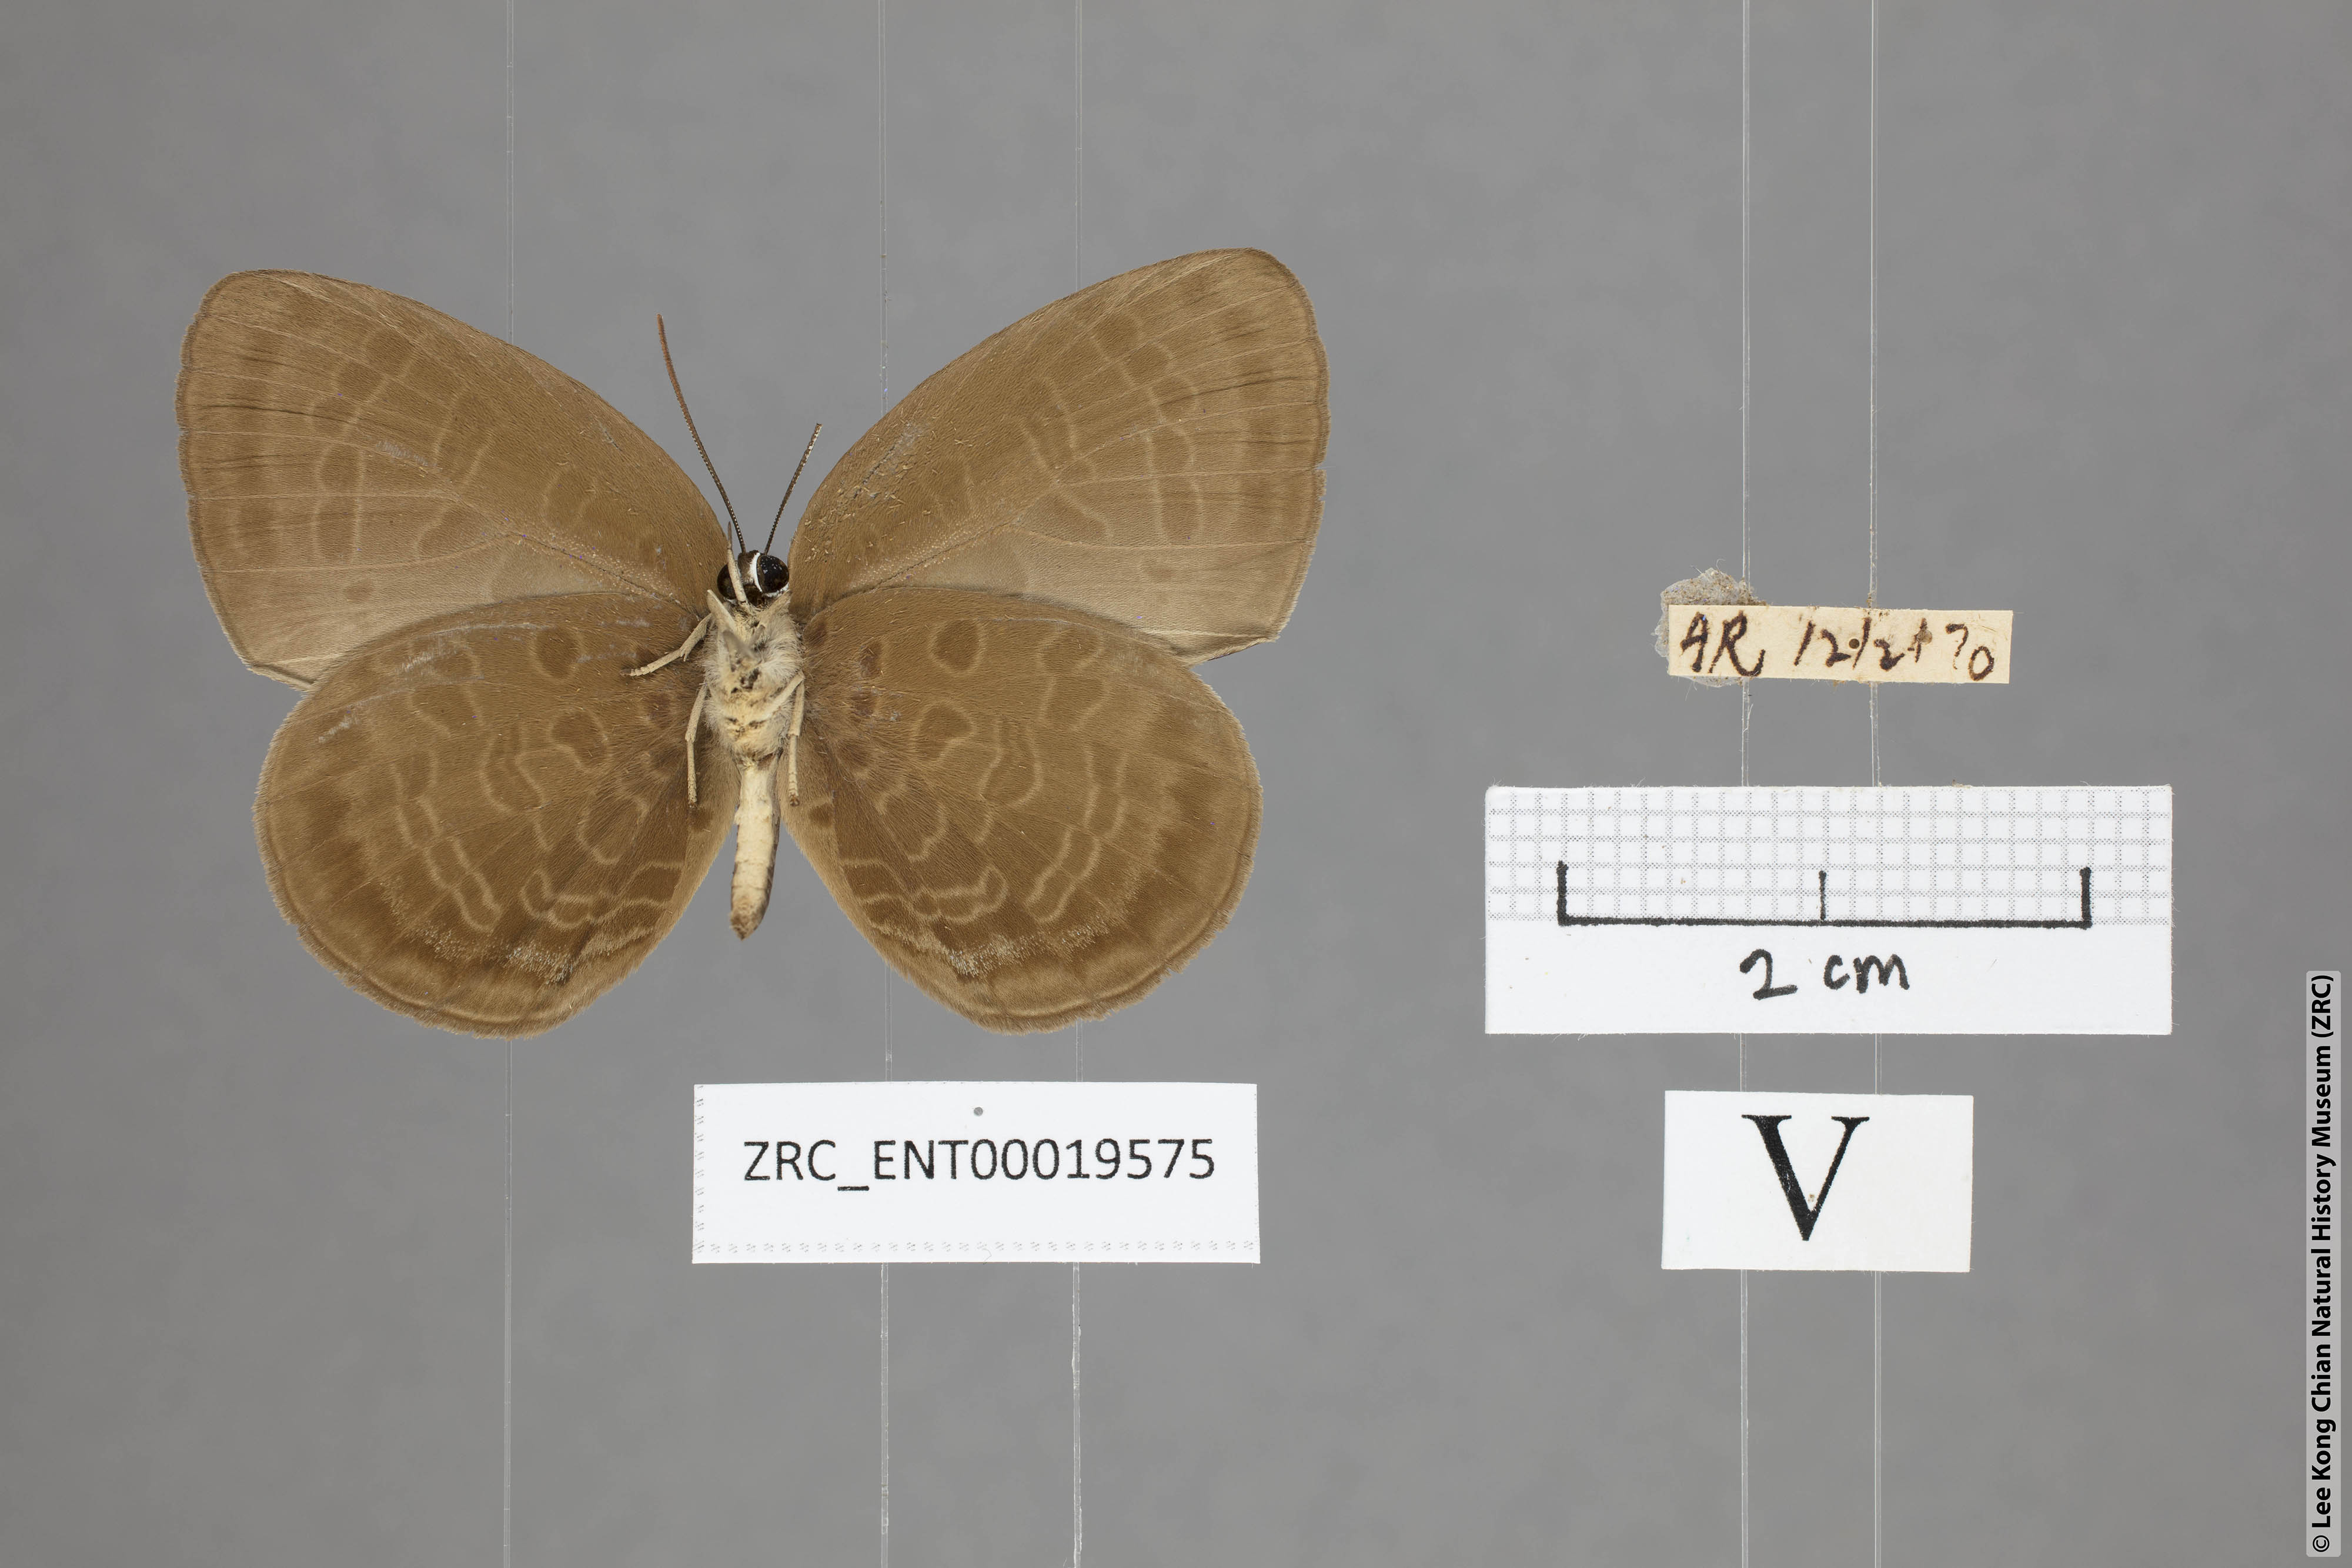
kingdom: Animalia
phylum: Arthropoda
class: Insecta
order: Lepidoptera
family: Lycaenidae
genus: Arhopala
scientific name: Arhopala inornata
